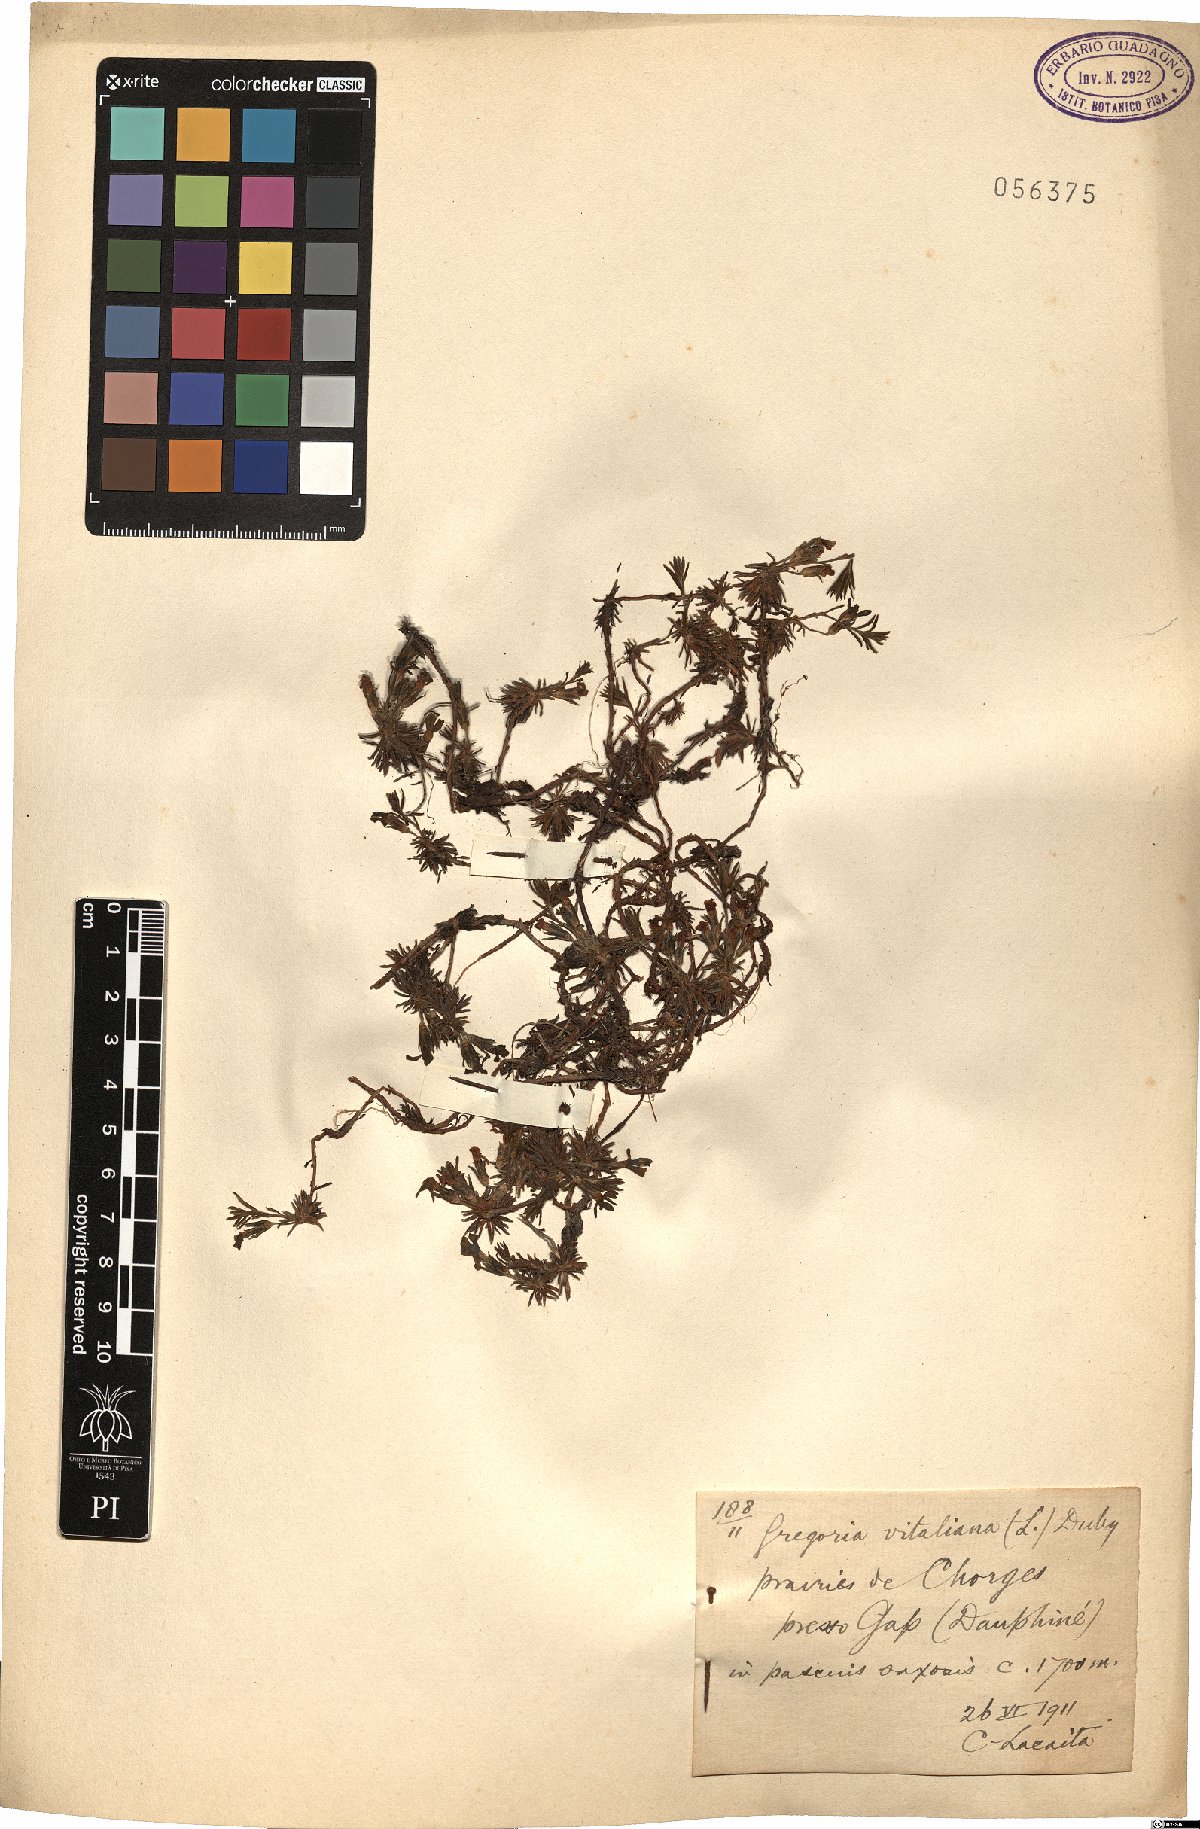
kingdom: Plantae
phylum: Tracheophyta
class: Magnoliopsida
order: Ericales
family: Primulaceae
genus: Androsace
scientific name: Androsace vitaliana
